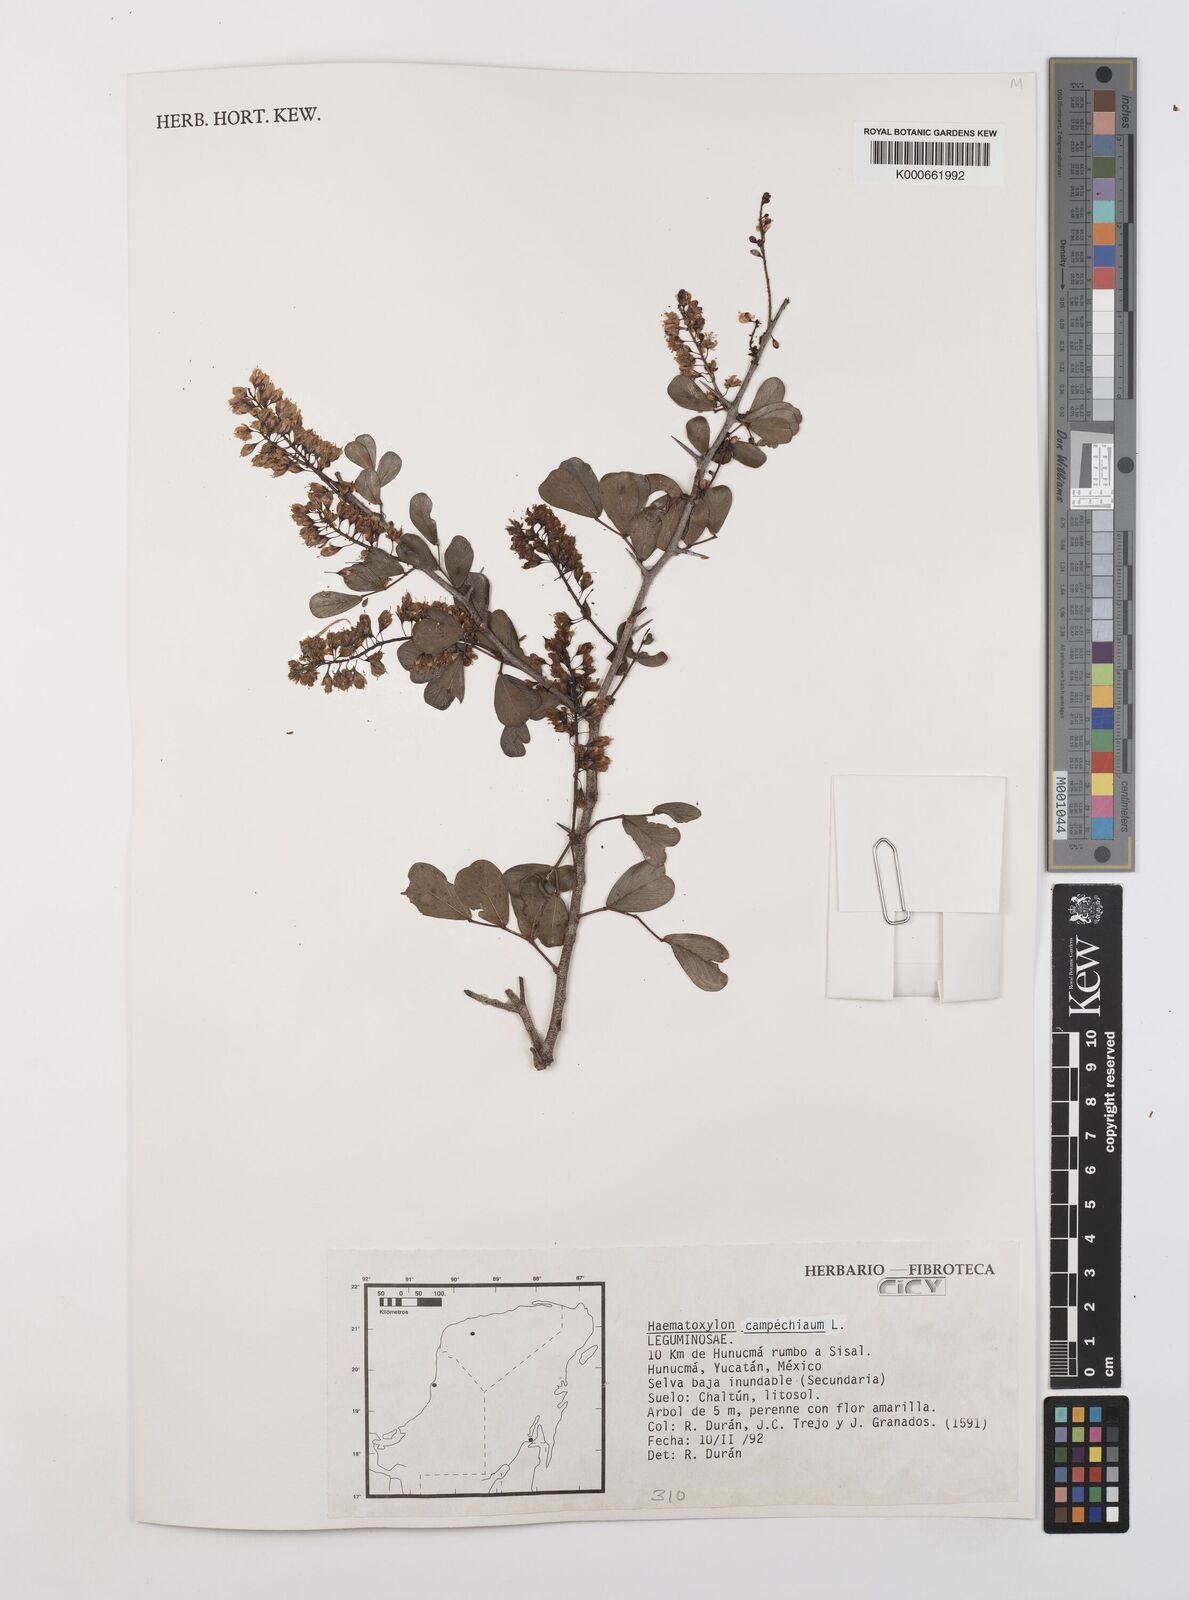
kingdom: Plantae
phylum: Tracheophyta
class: Magnoliopsida
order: Fabales
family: Fabaceae
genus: Haematoxylum
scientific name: Haematoxylum
